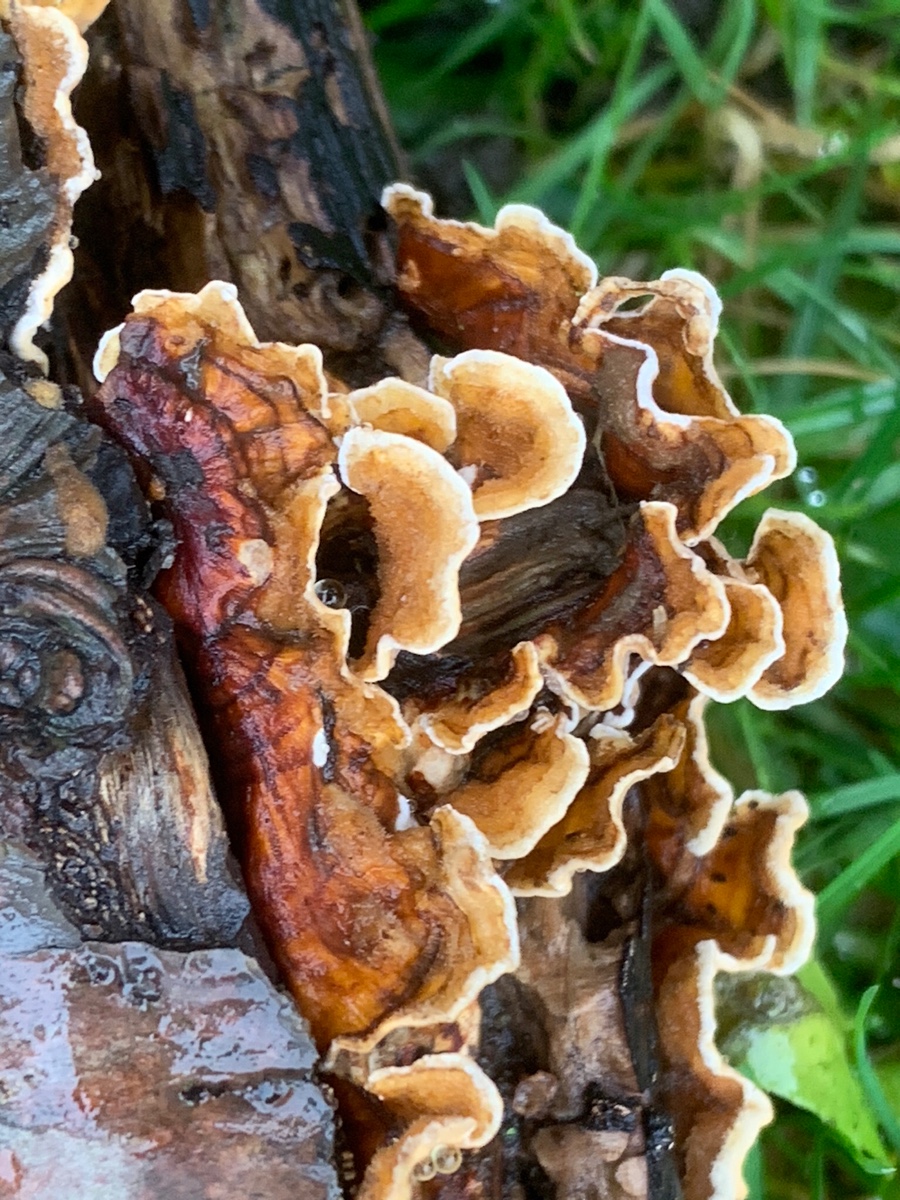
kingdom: Fungi
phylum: Basidiomycota
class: Agaricomycetes
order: Russulales
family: Stereaceae
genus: Stereum
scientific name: Stereum hirsutum
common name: håret lædersvamp
